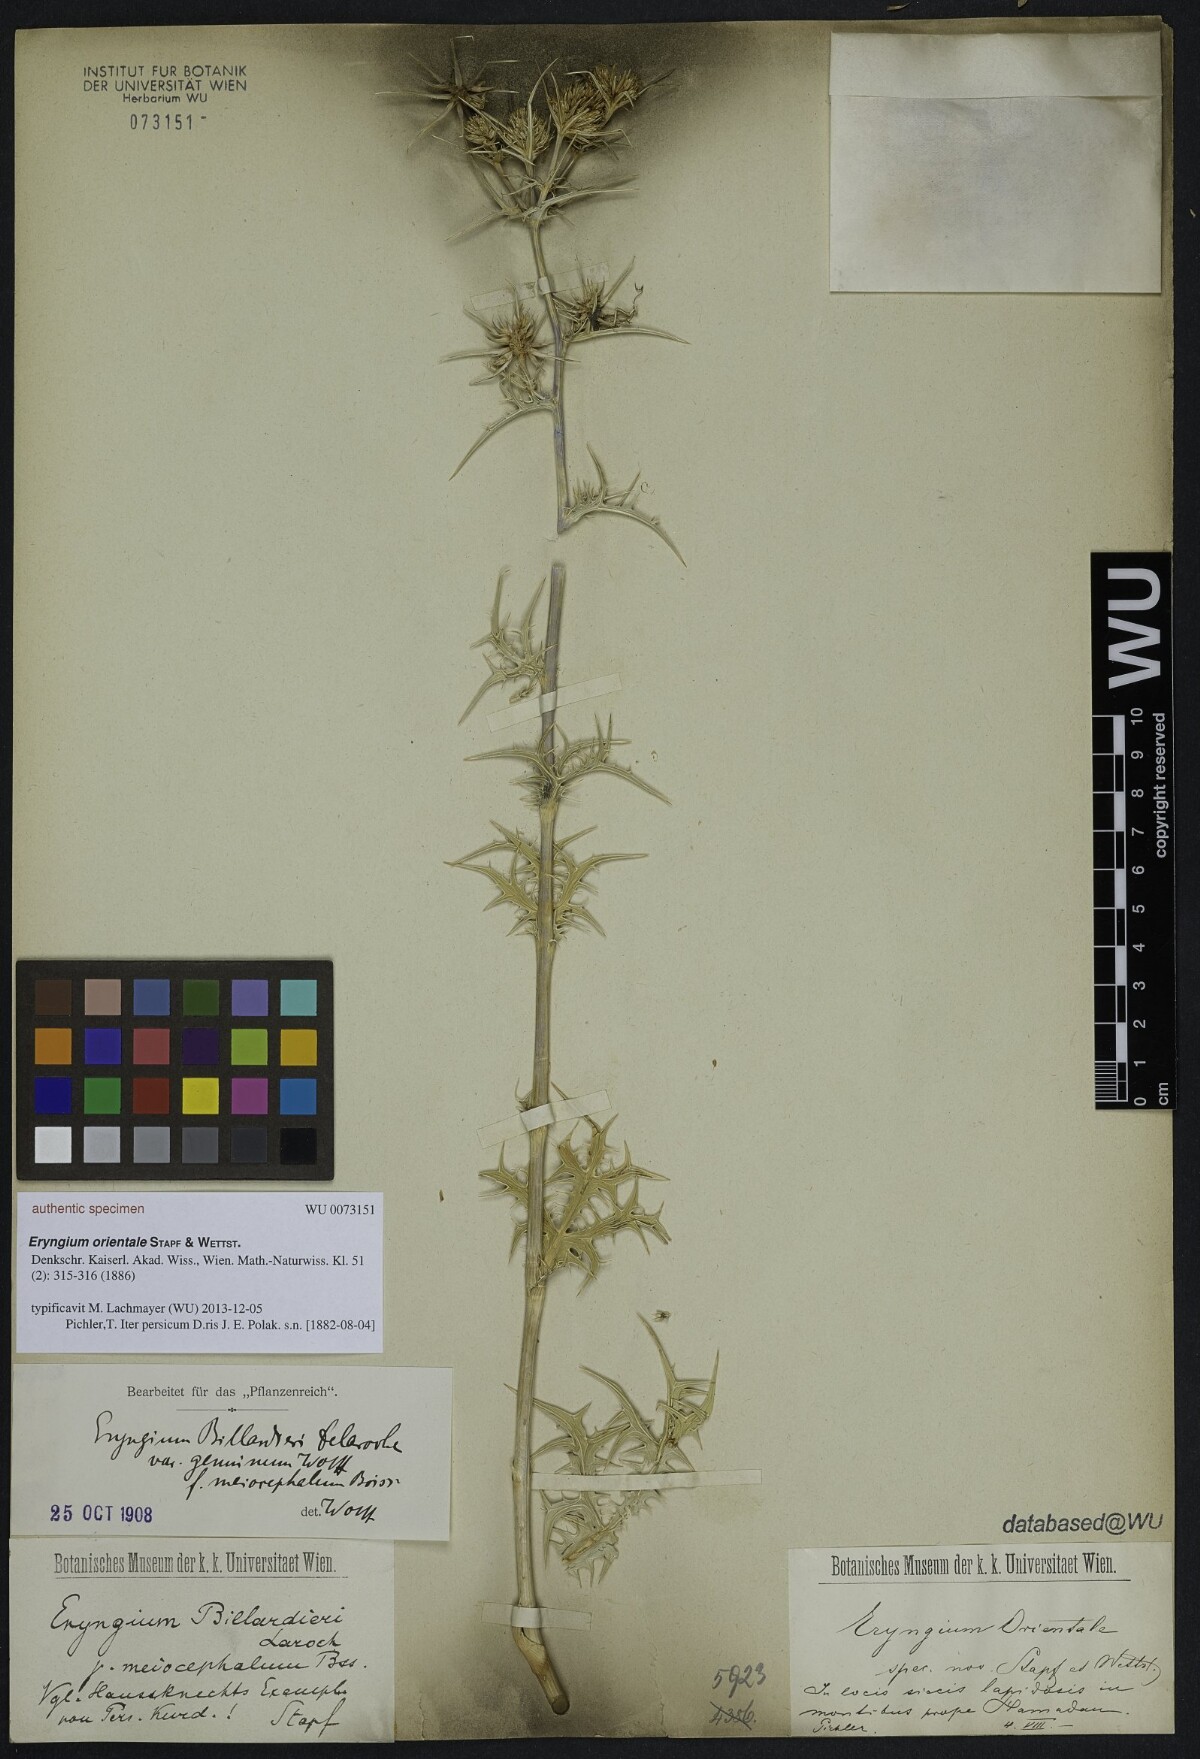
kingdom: Plantae
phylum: Tracheophyta
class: Magnoliopsida
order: Apiales
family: Apiaceae
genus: Eryngium
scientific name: Eryngium billardierei
